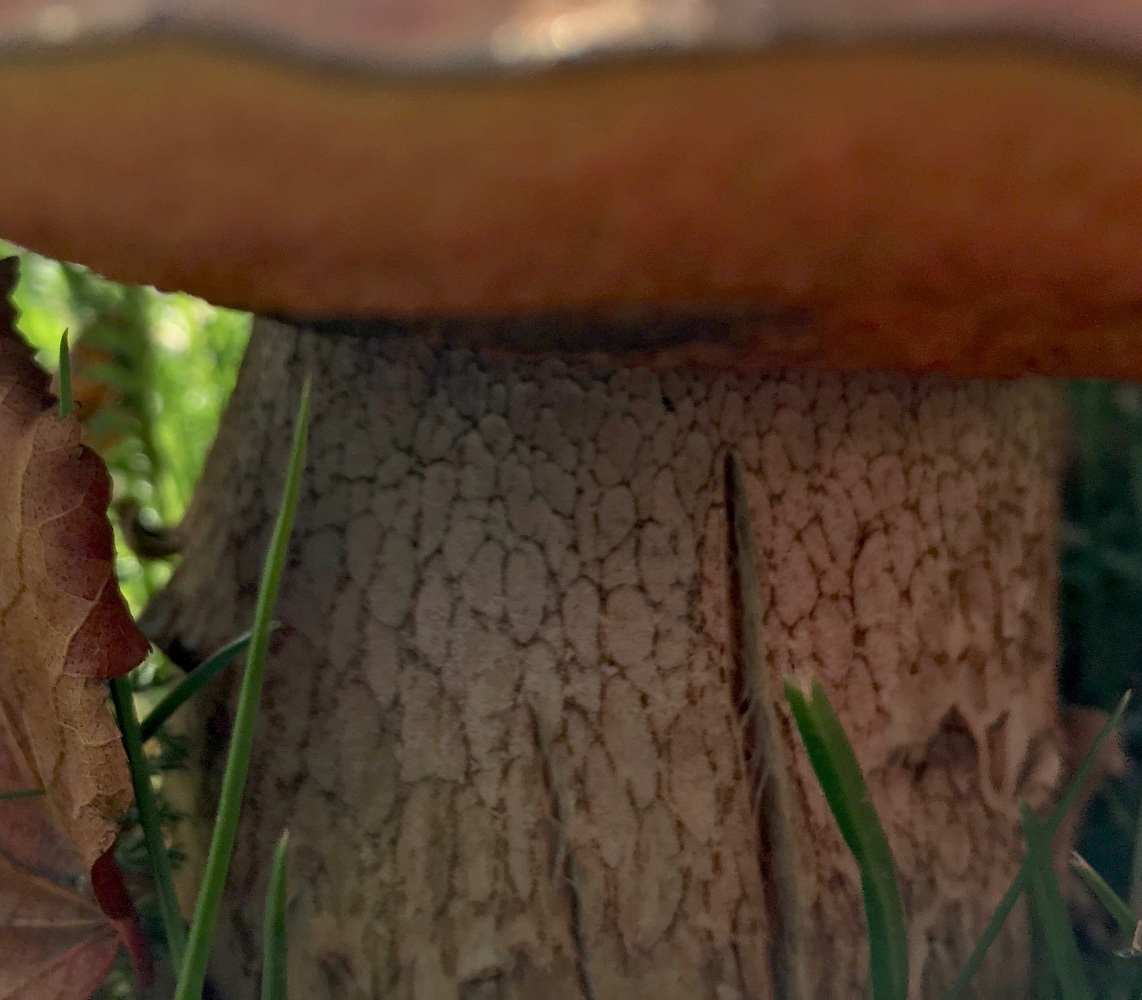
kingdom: Fungi
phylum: Basidiomycota
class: Agaricomycetes
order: Boletales
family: Boletaceae
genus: Suillellus
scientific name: Suillellus luridus
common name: netstokket indigorørhat
